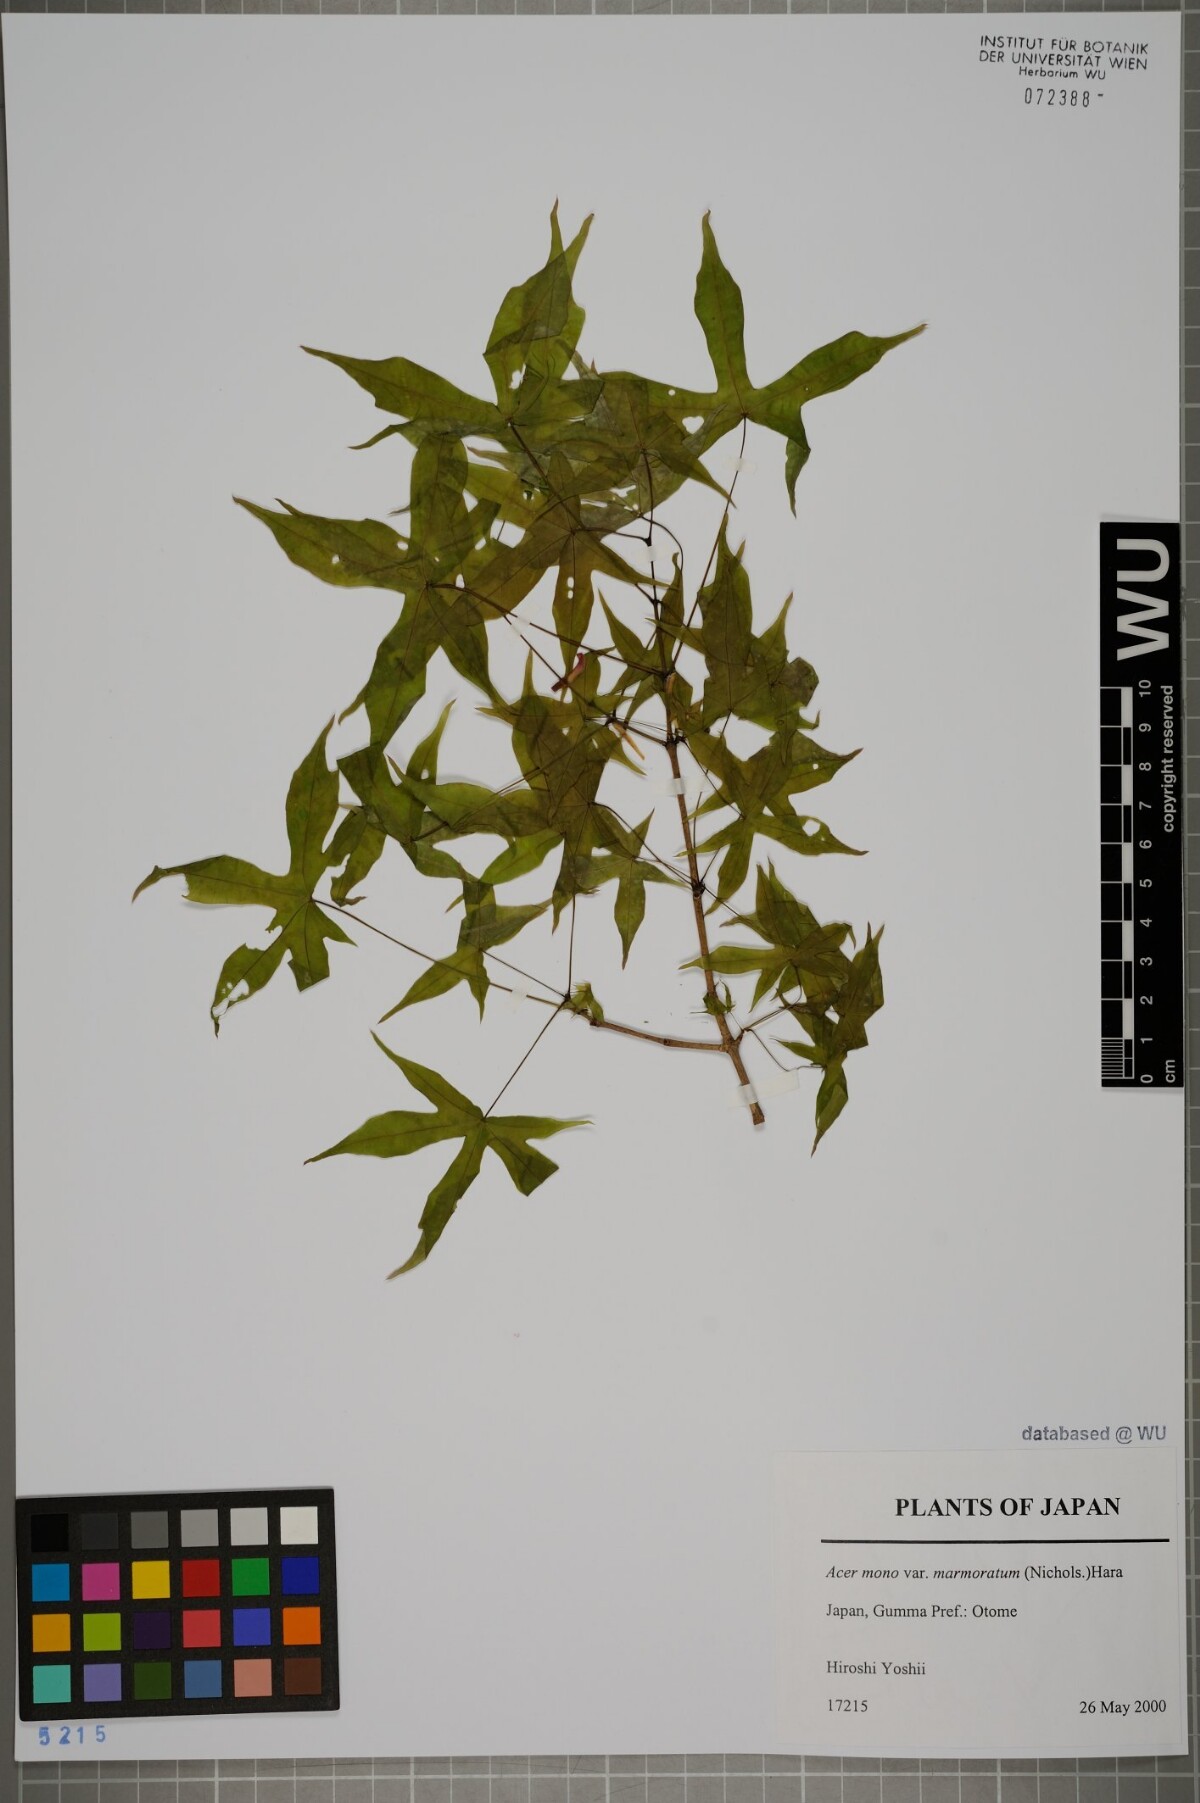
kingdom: Plantae
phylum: Tracheophyta
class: Magnoliopsida
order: Sapindales
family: Sapindaceae
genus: Acer
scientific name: Acer pictum
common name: The painted maple
